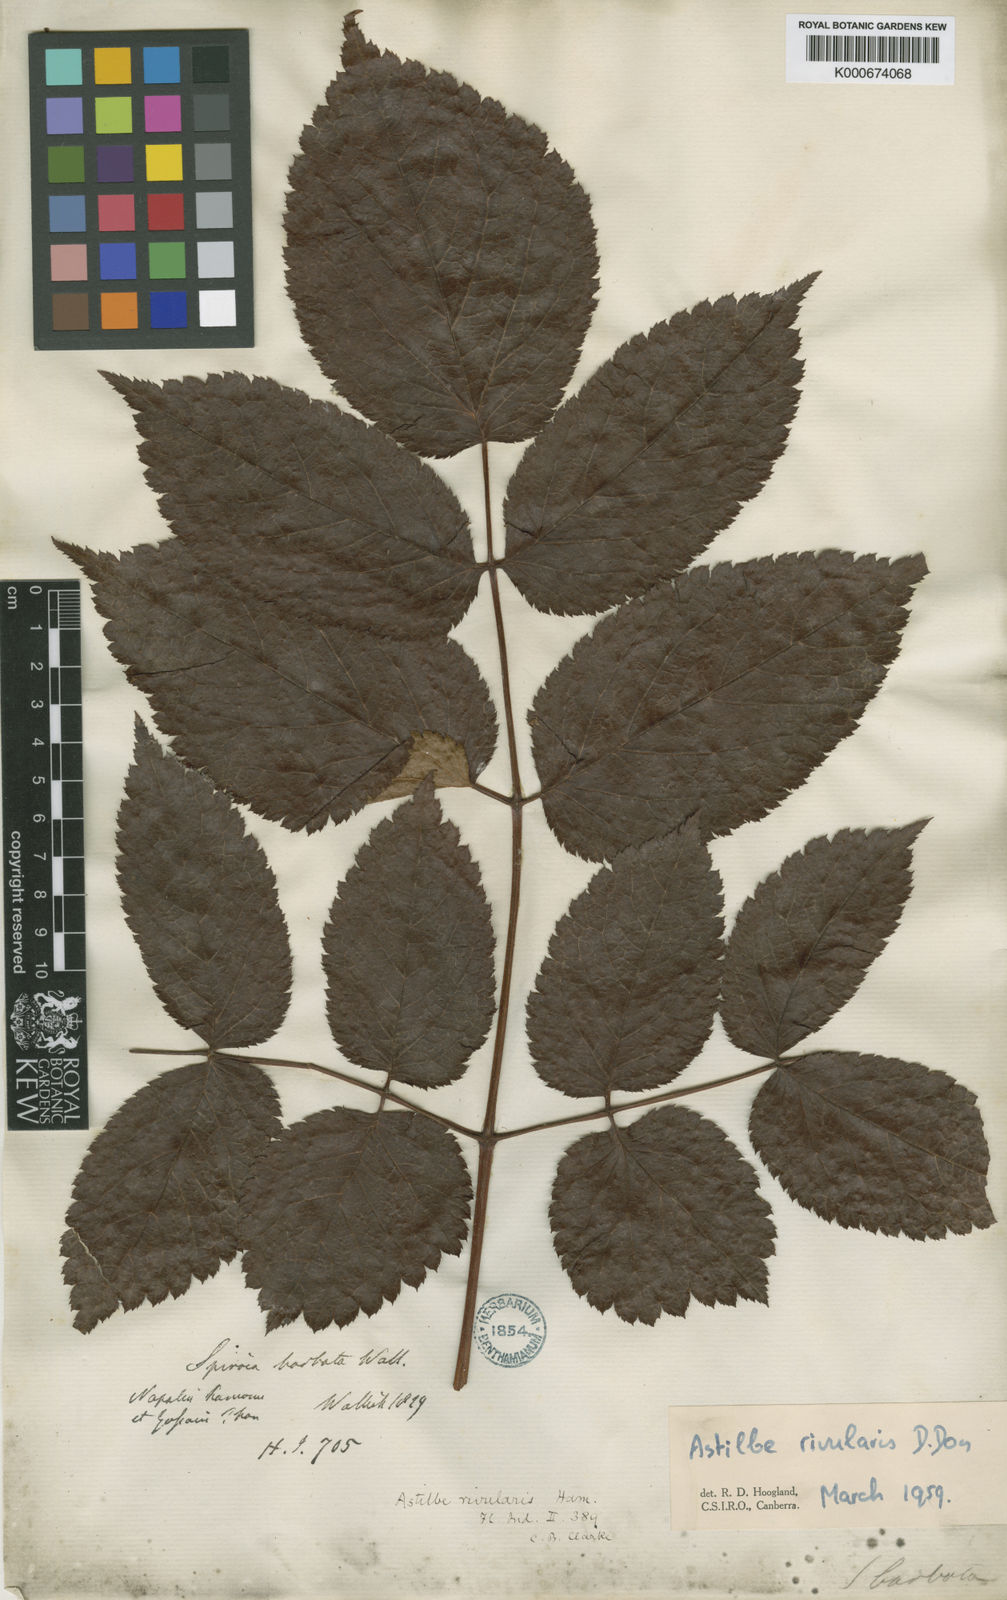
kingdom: Plantae
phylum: Tracheophyta
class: Magnoliopsida
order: Saxifragales
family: Saxifragaceae
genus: Astilbe
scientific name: Astilbe rivularis
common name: Tall false-buck's-beard
